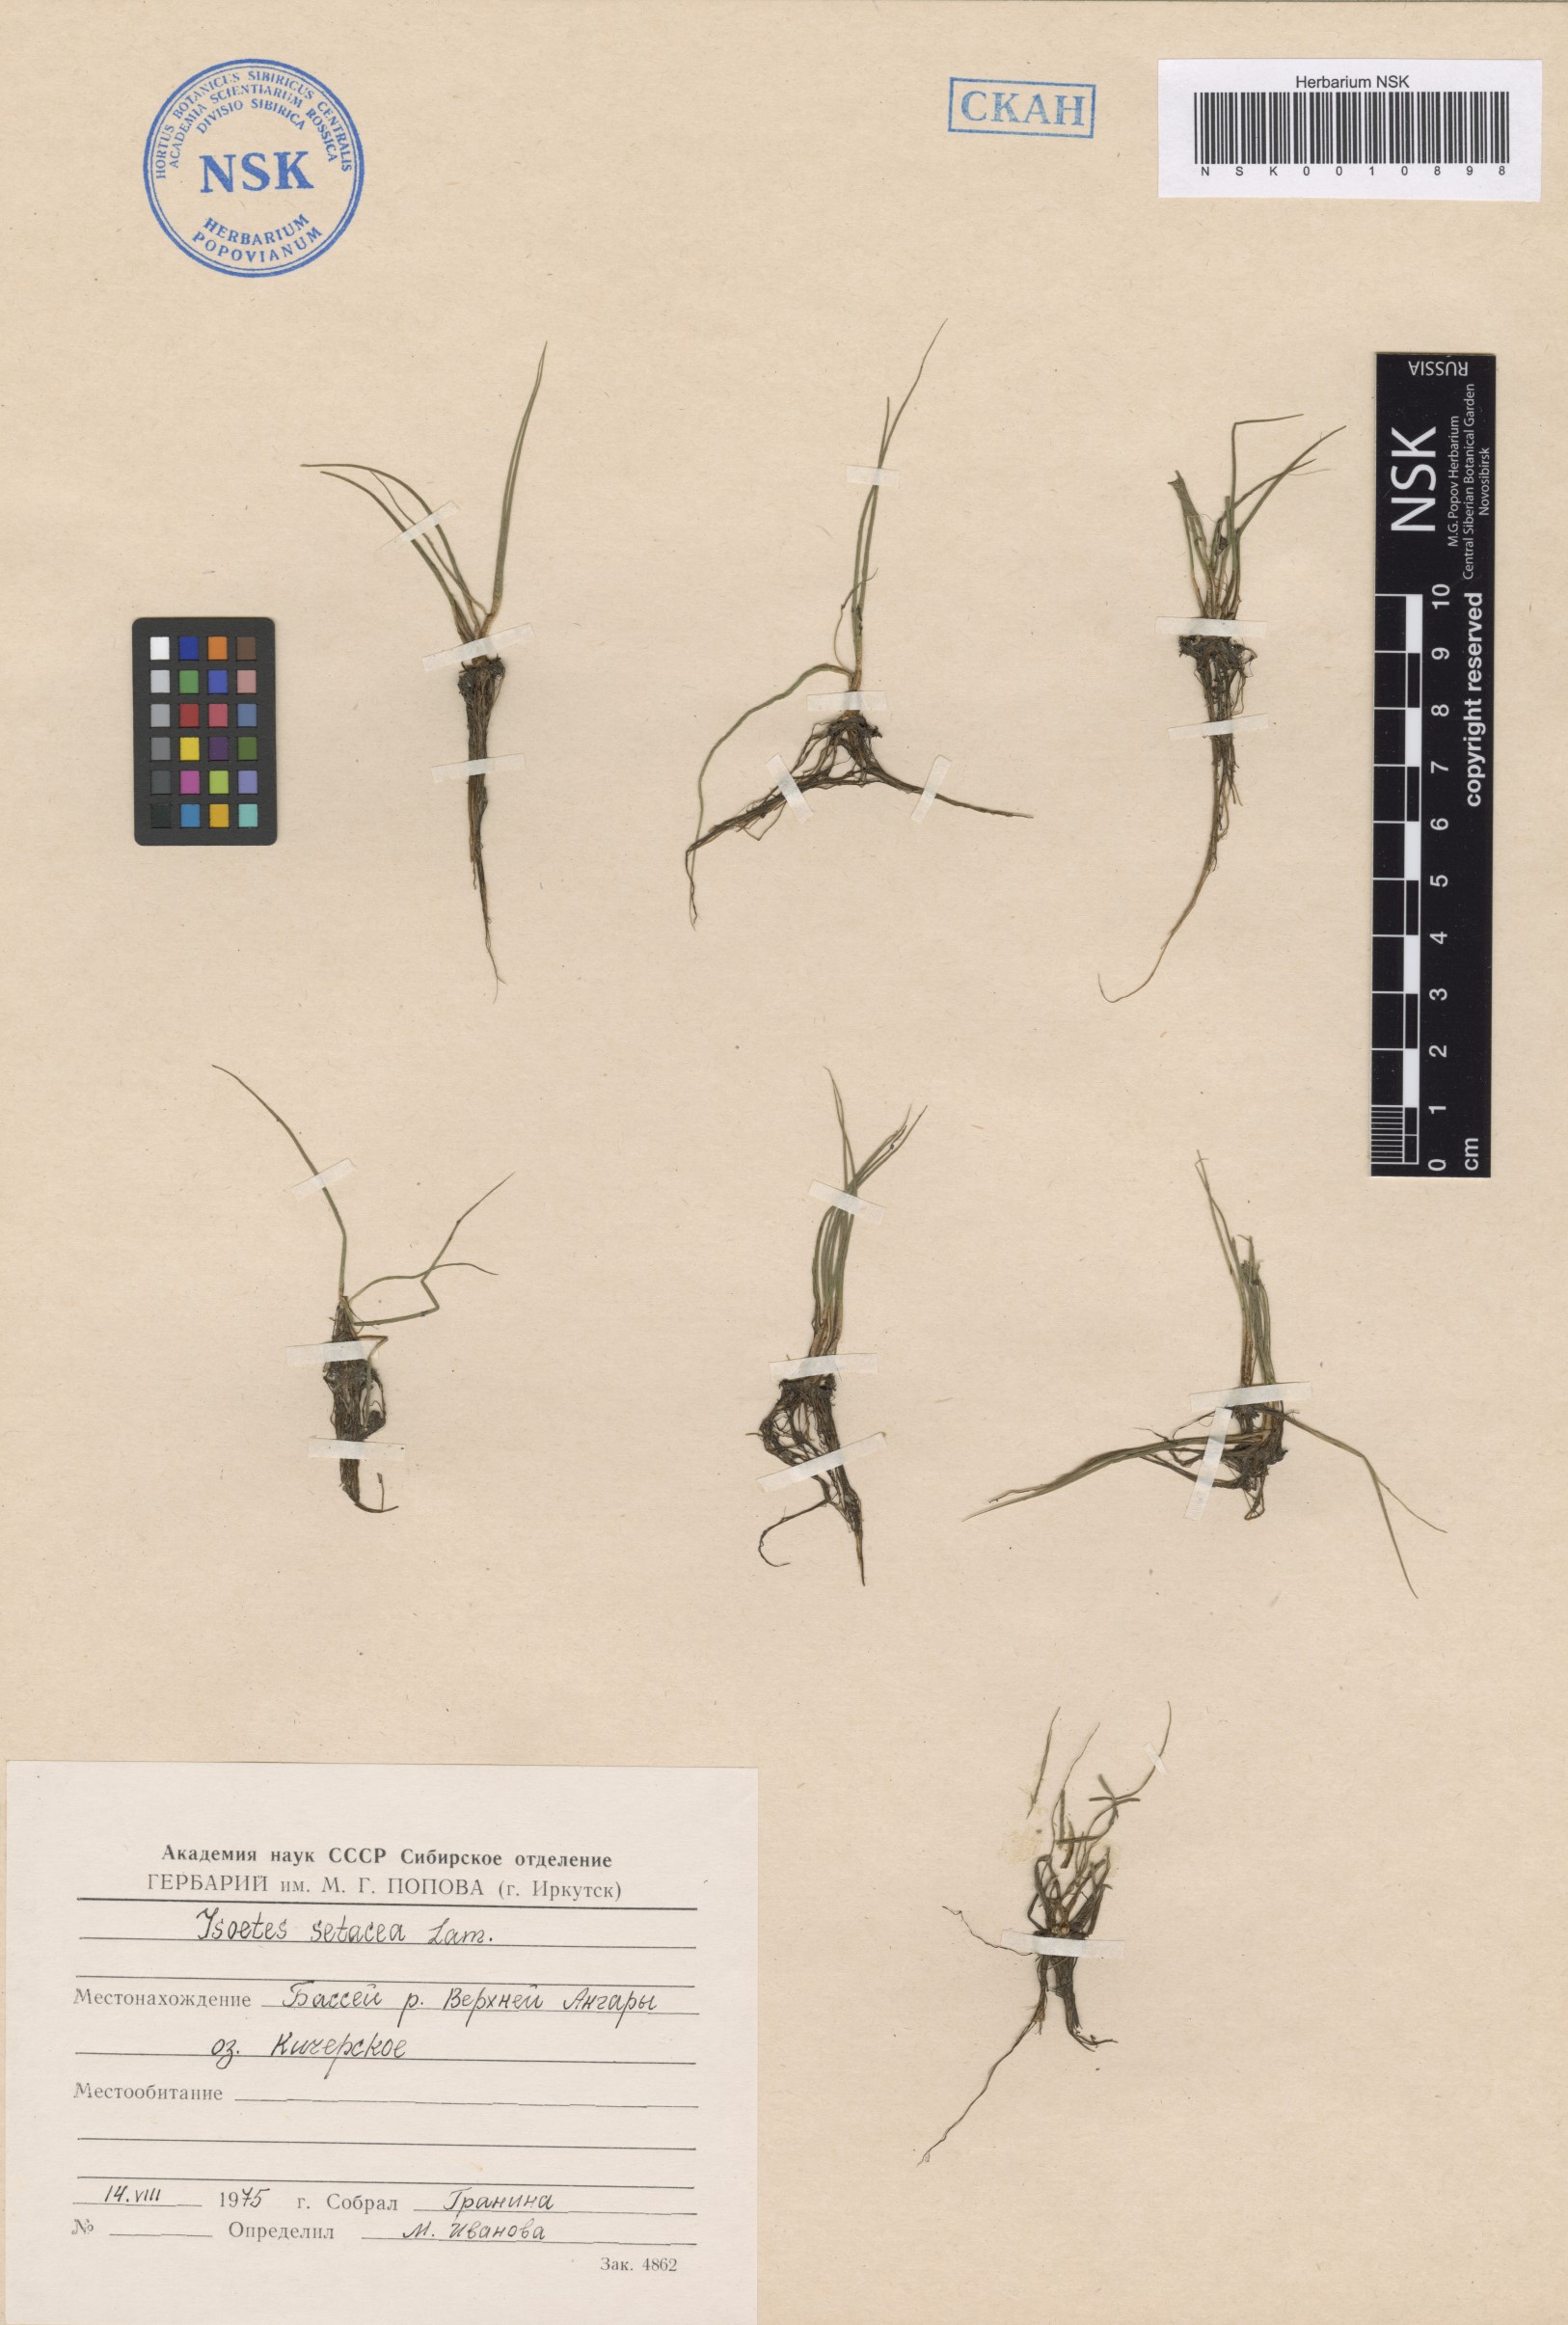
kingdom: Plantae
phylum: Tracheophyta
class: Lycopodiopsida
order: Isoetales
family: Isoetaceae
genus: Isoetes
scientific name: Isoetes lacustris
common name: Common quillwort
